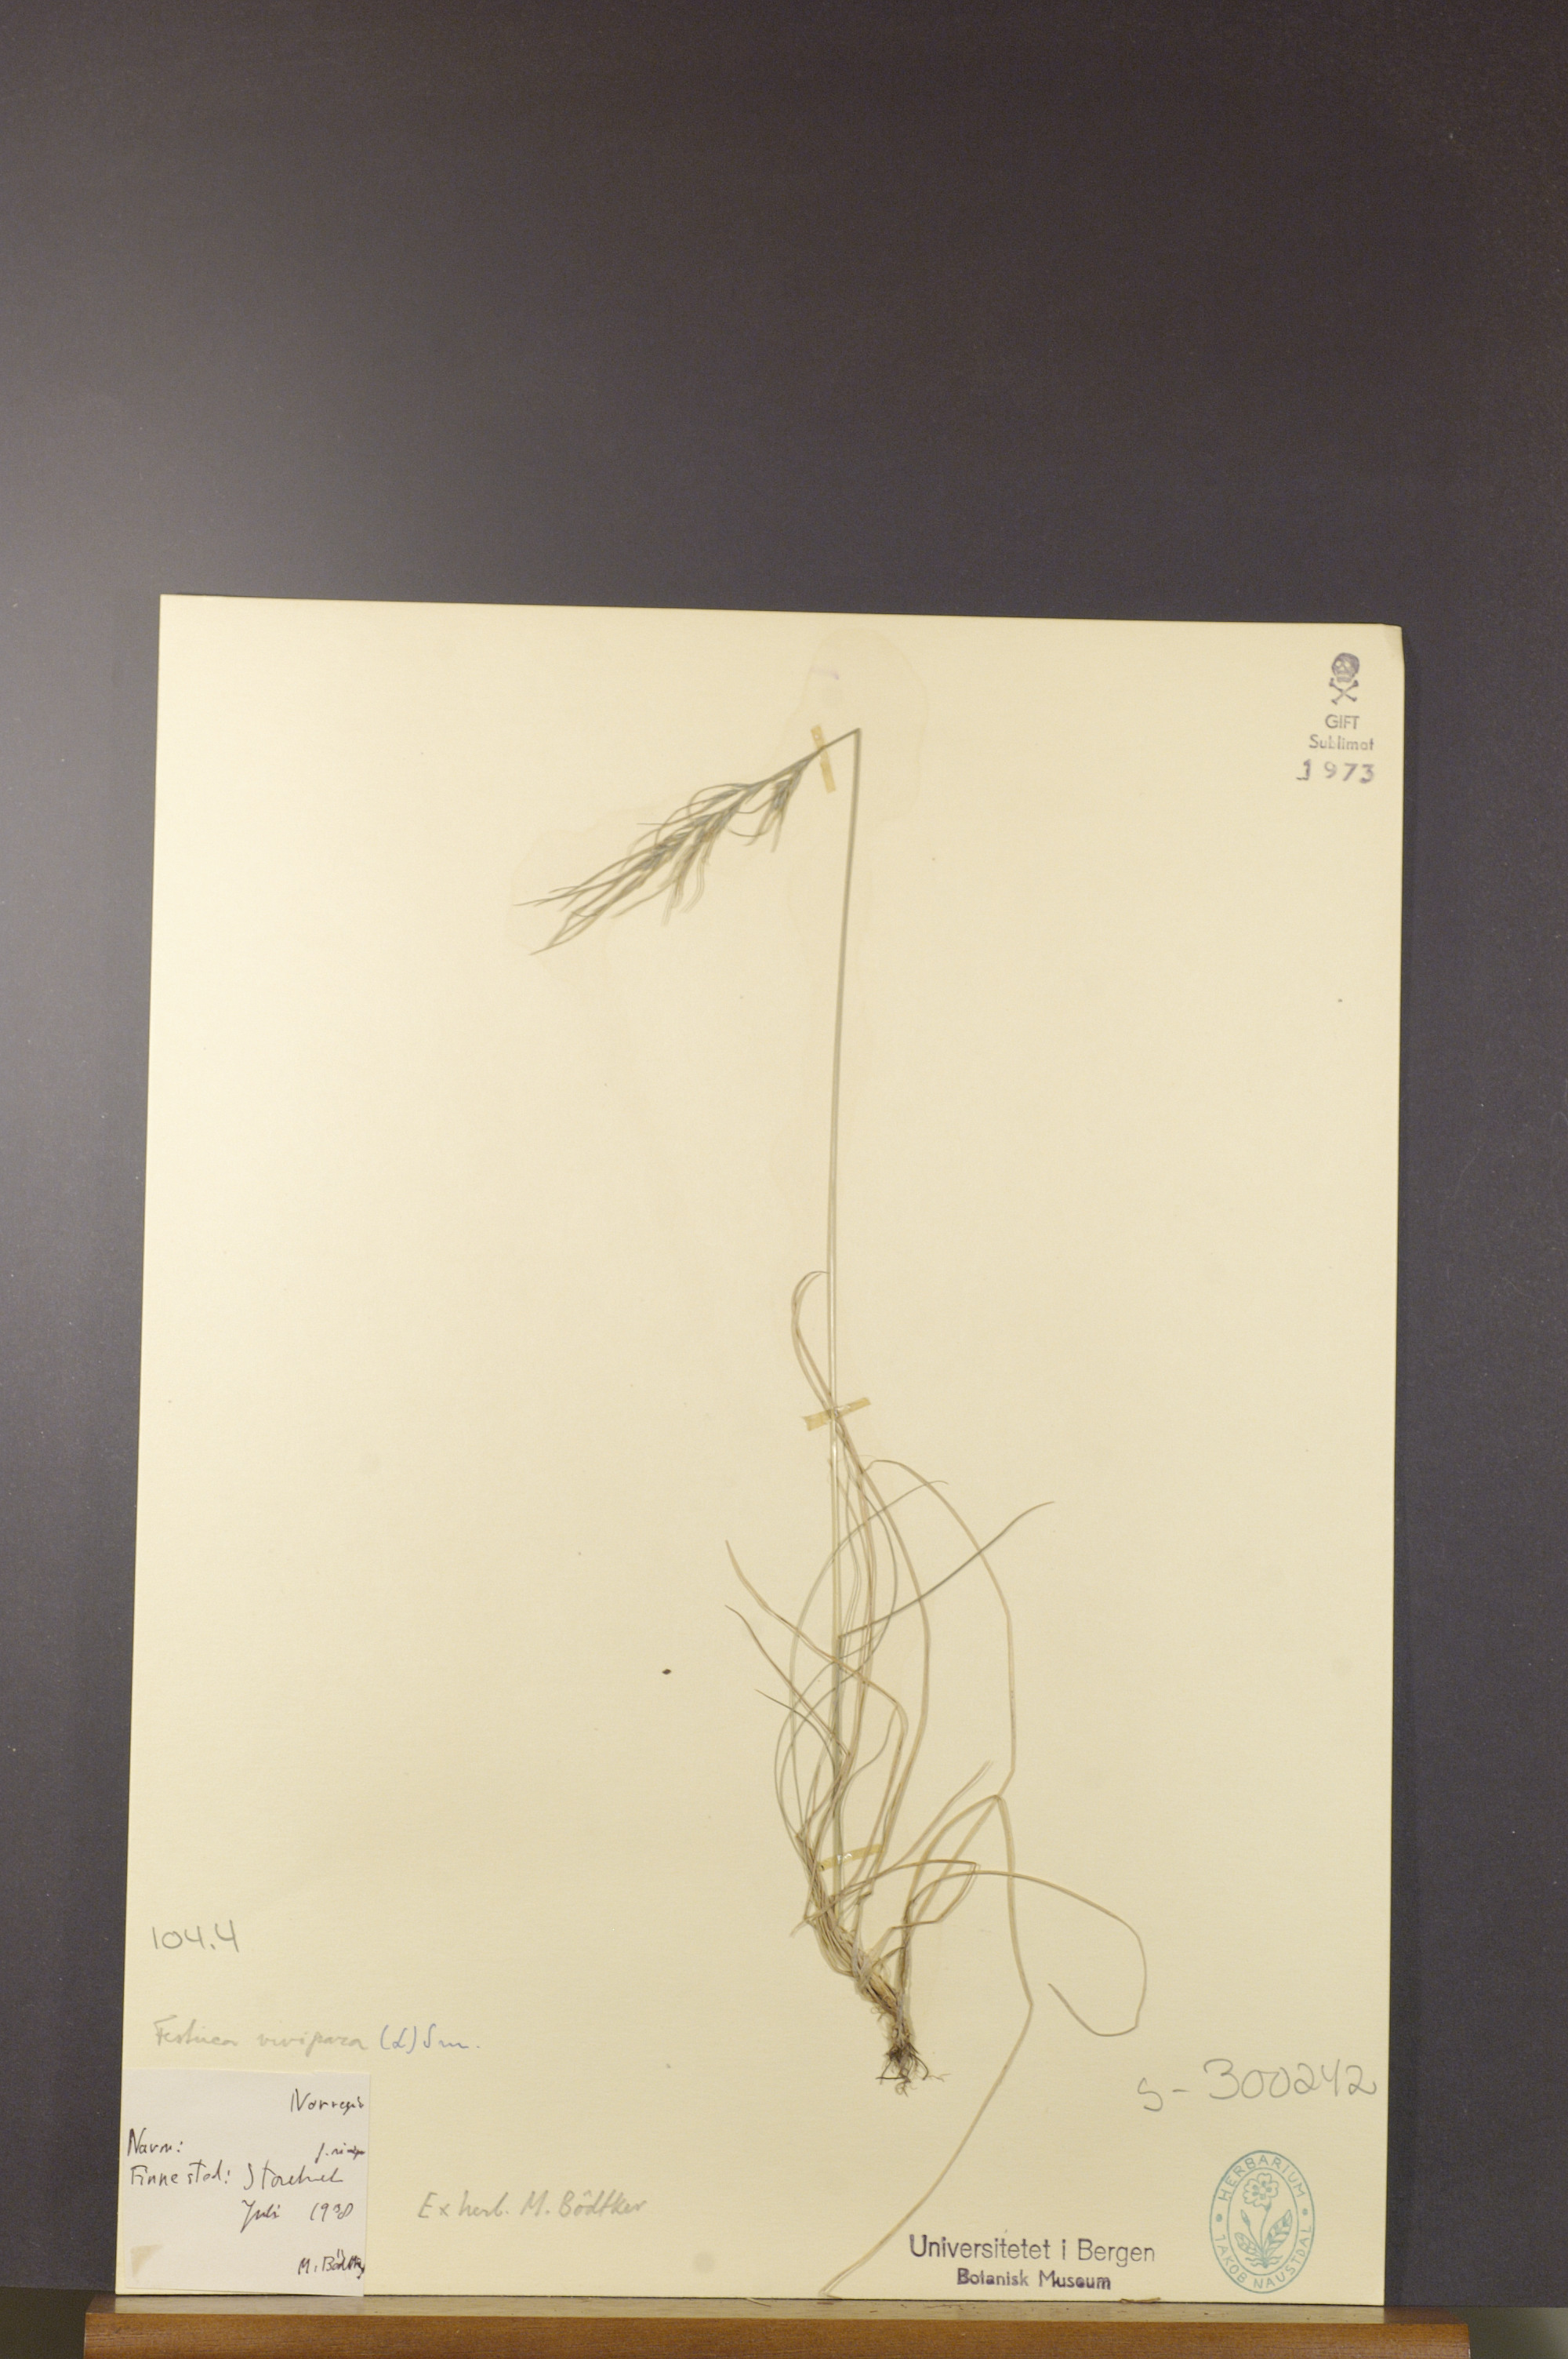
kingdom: Plantae
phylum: Tracheophyta
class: Liliopsida
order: Poales
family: Poaceae
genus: Festuca
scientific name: Festuca vivipara
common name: Viviparous sheep's-fescue
